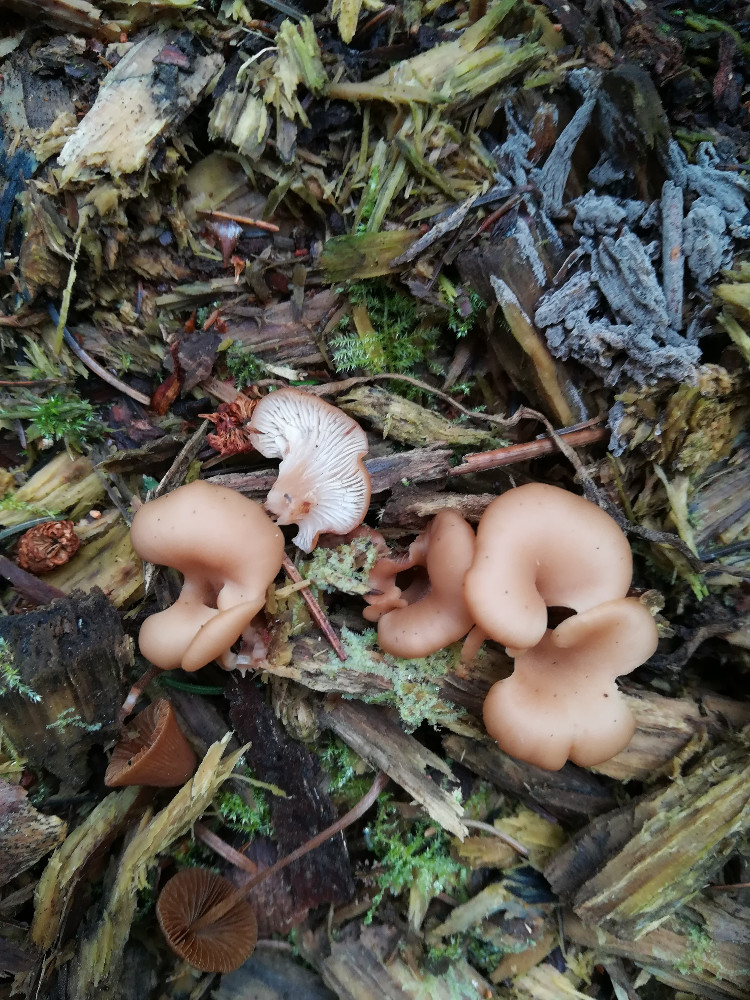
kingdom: Fungi
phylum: Basidiomycota
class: Agaricomycetes
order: Russulales
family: Auriscalpiaceae
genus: Lentinellus
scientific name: Lentinellus cochleatus
